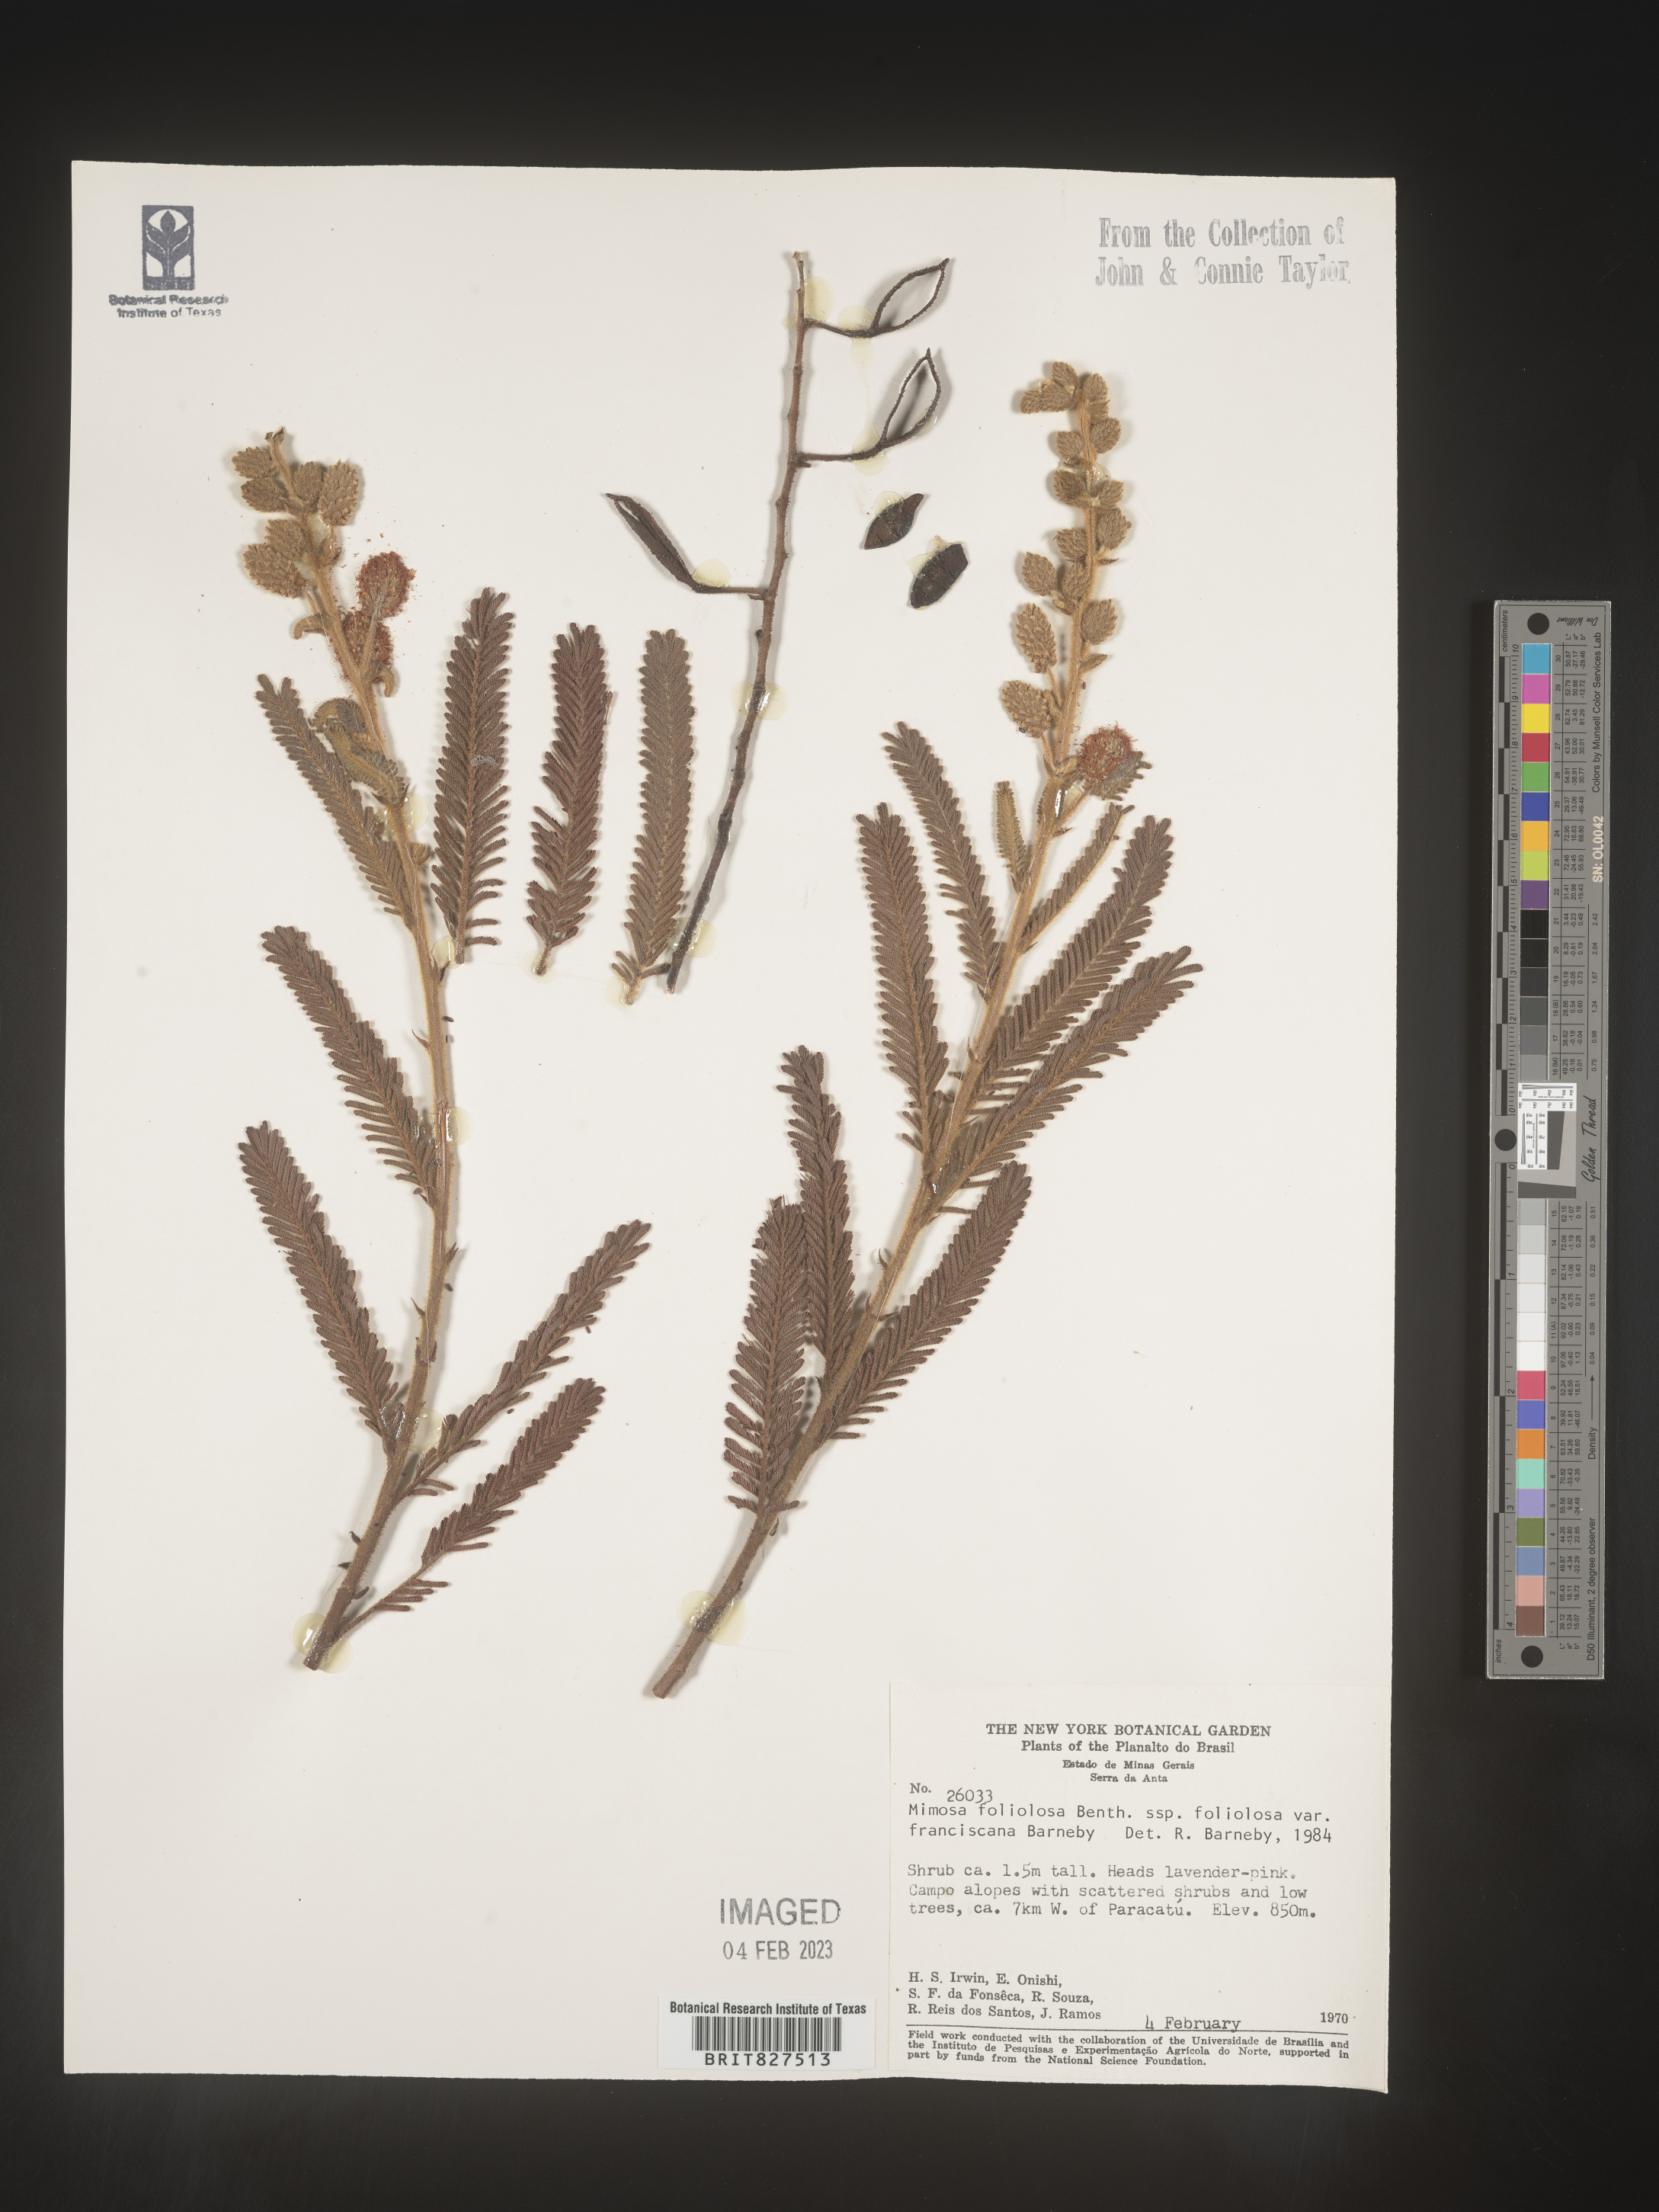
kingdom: Plantae
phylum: Tracheophyta
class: Magnoliopsida
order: Fabales
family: Fabaceae
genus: Mimosa
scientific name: Mimosa
